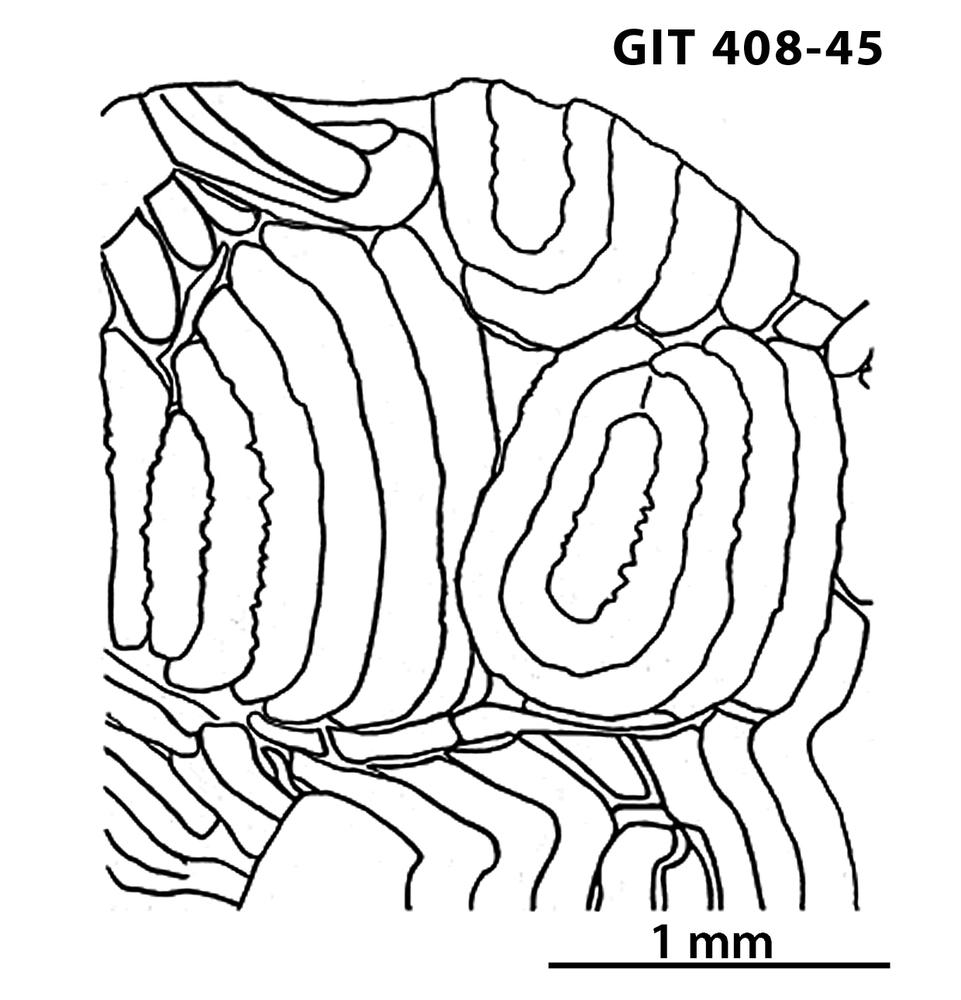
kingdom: Animalia
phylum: Chordata
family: Cyathaspididae
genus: Cyathaspis
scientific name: Cyathaspis
